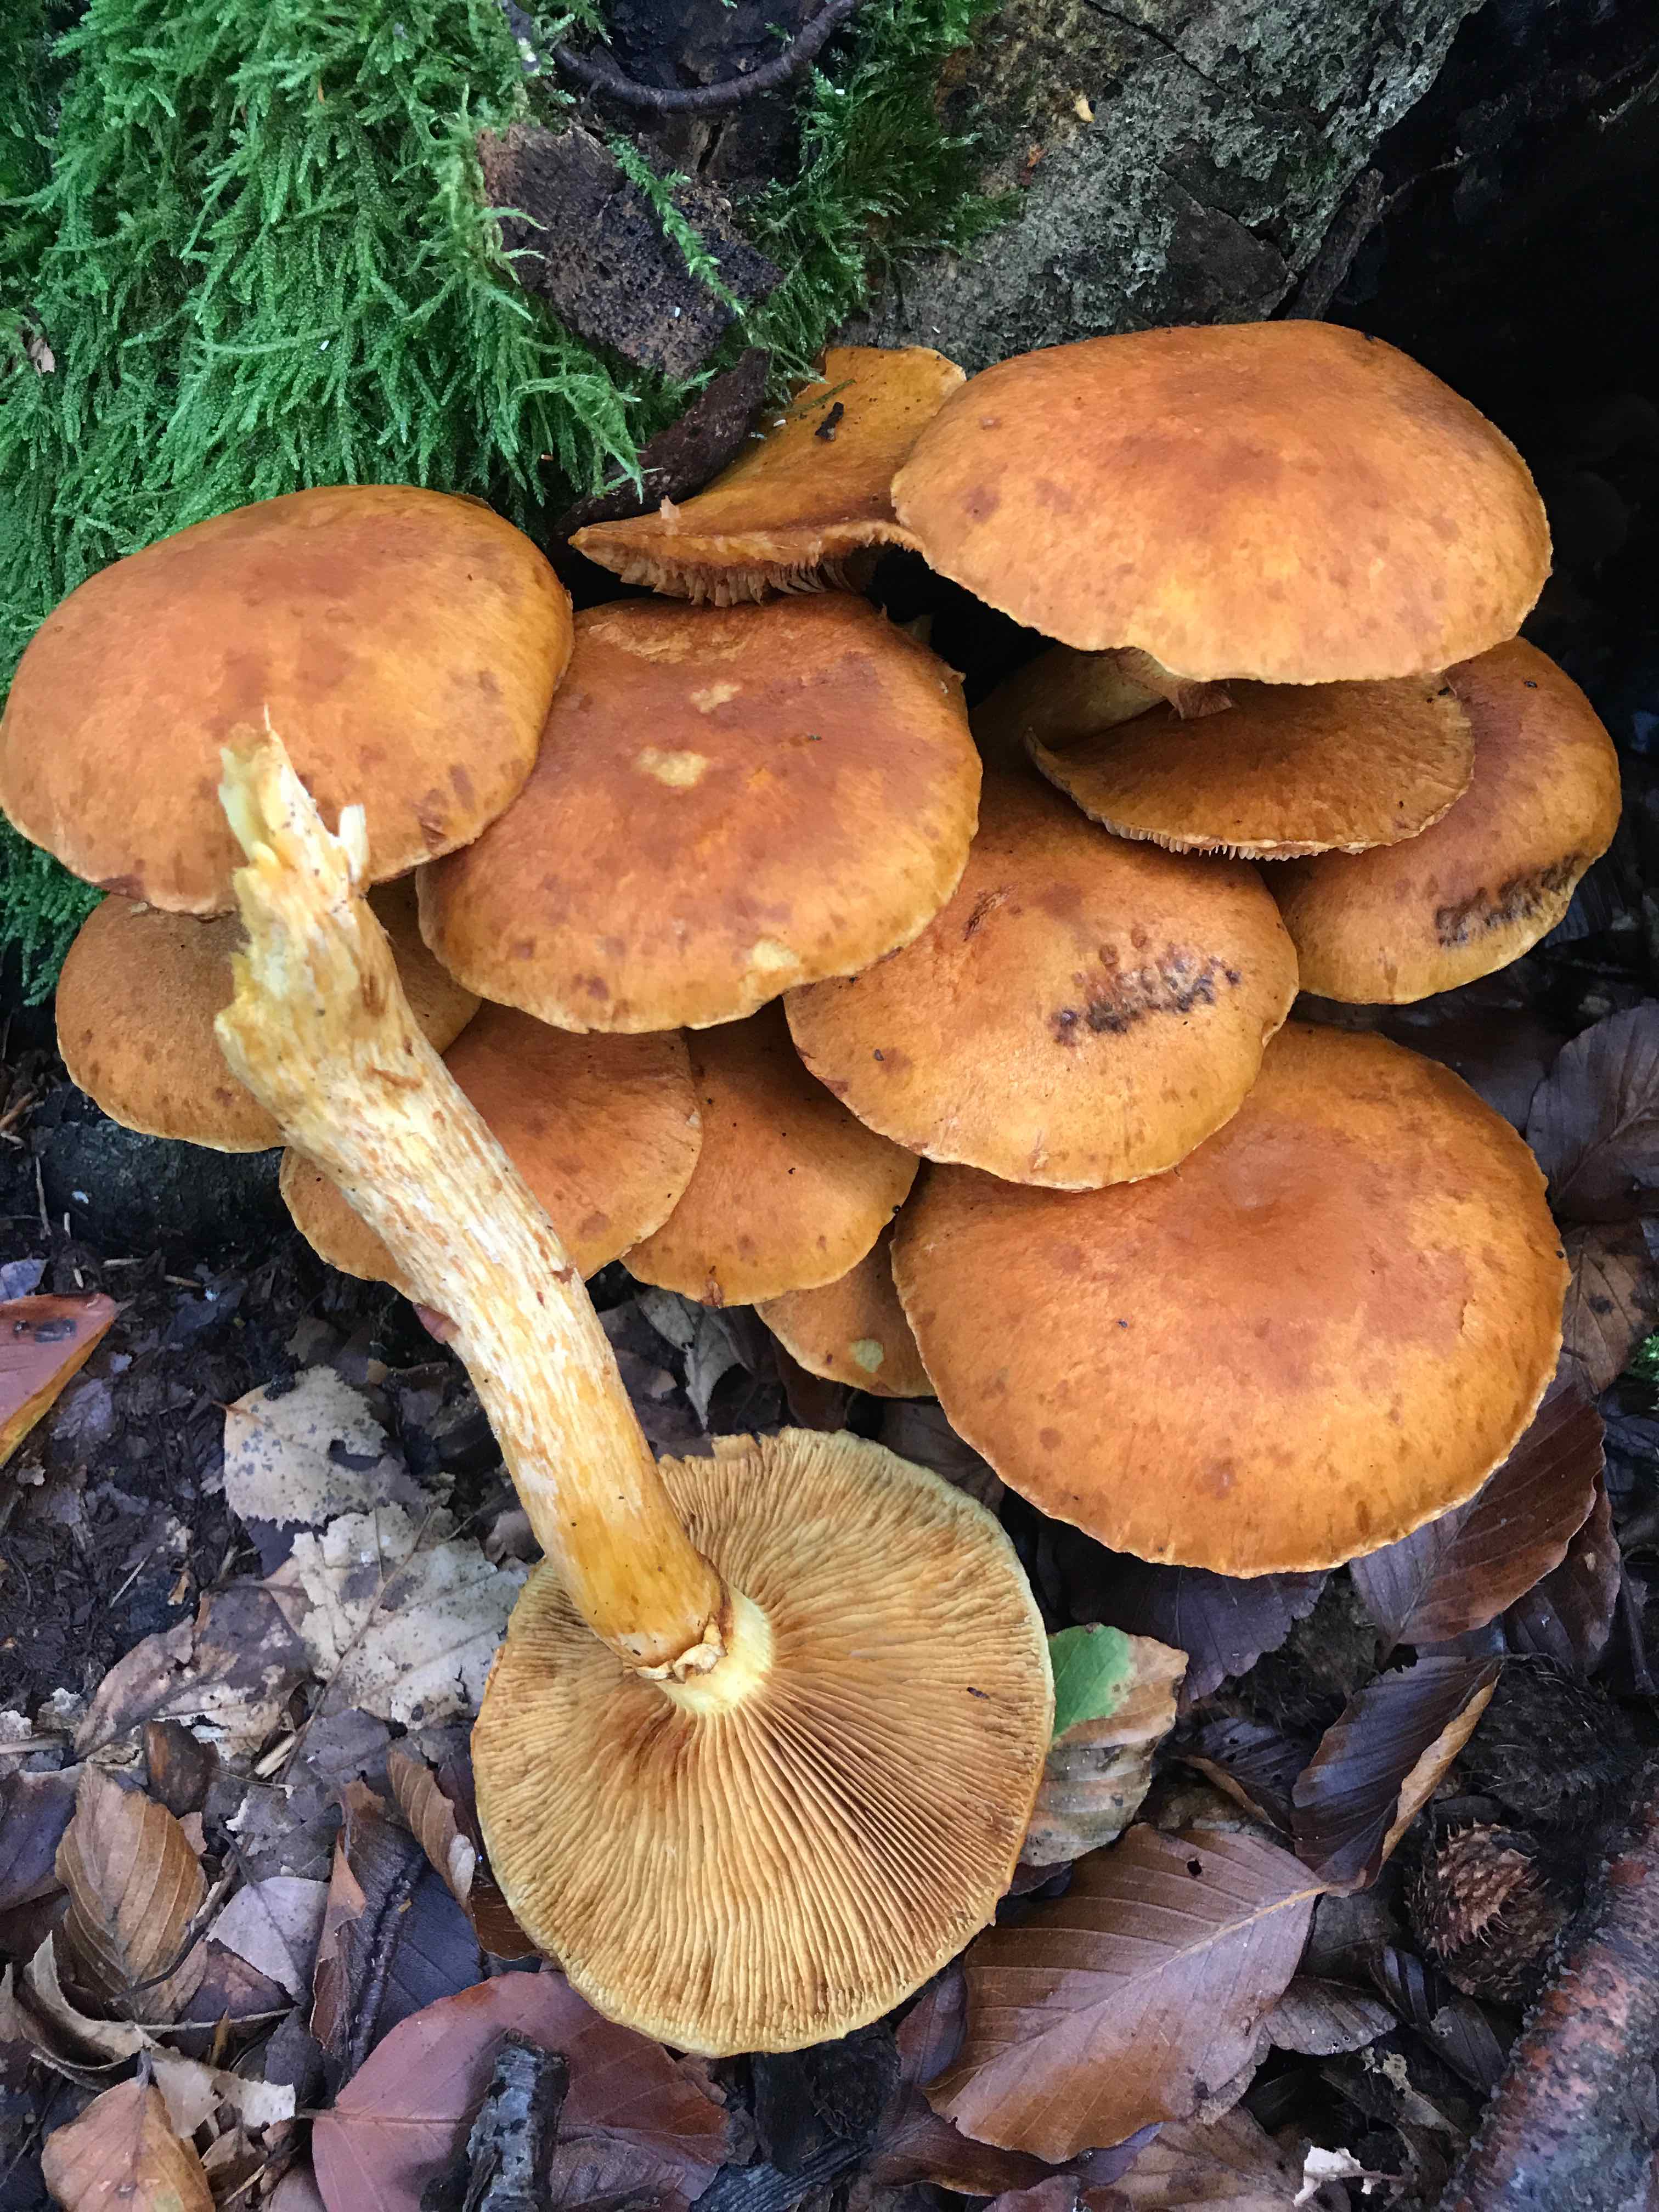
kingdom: Fungi
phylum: Basidiomycota
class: Agaricomycetes
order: Agaricales
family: Hymenogastraceae
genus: Gymnopilus
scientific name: Gymnopilus spectabilis
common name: fibret flammehat
